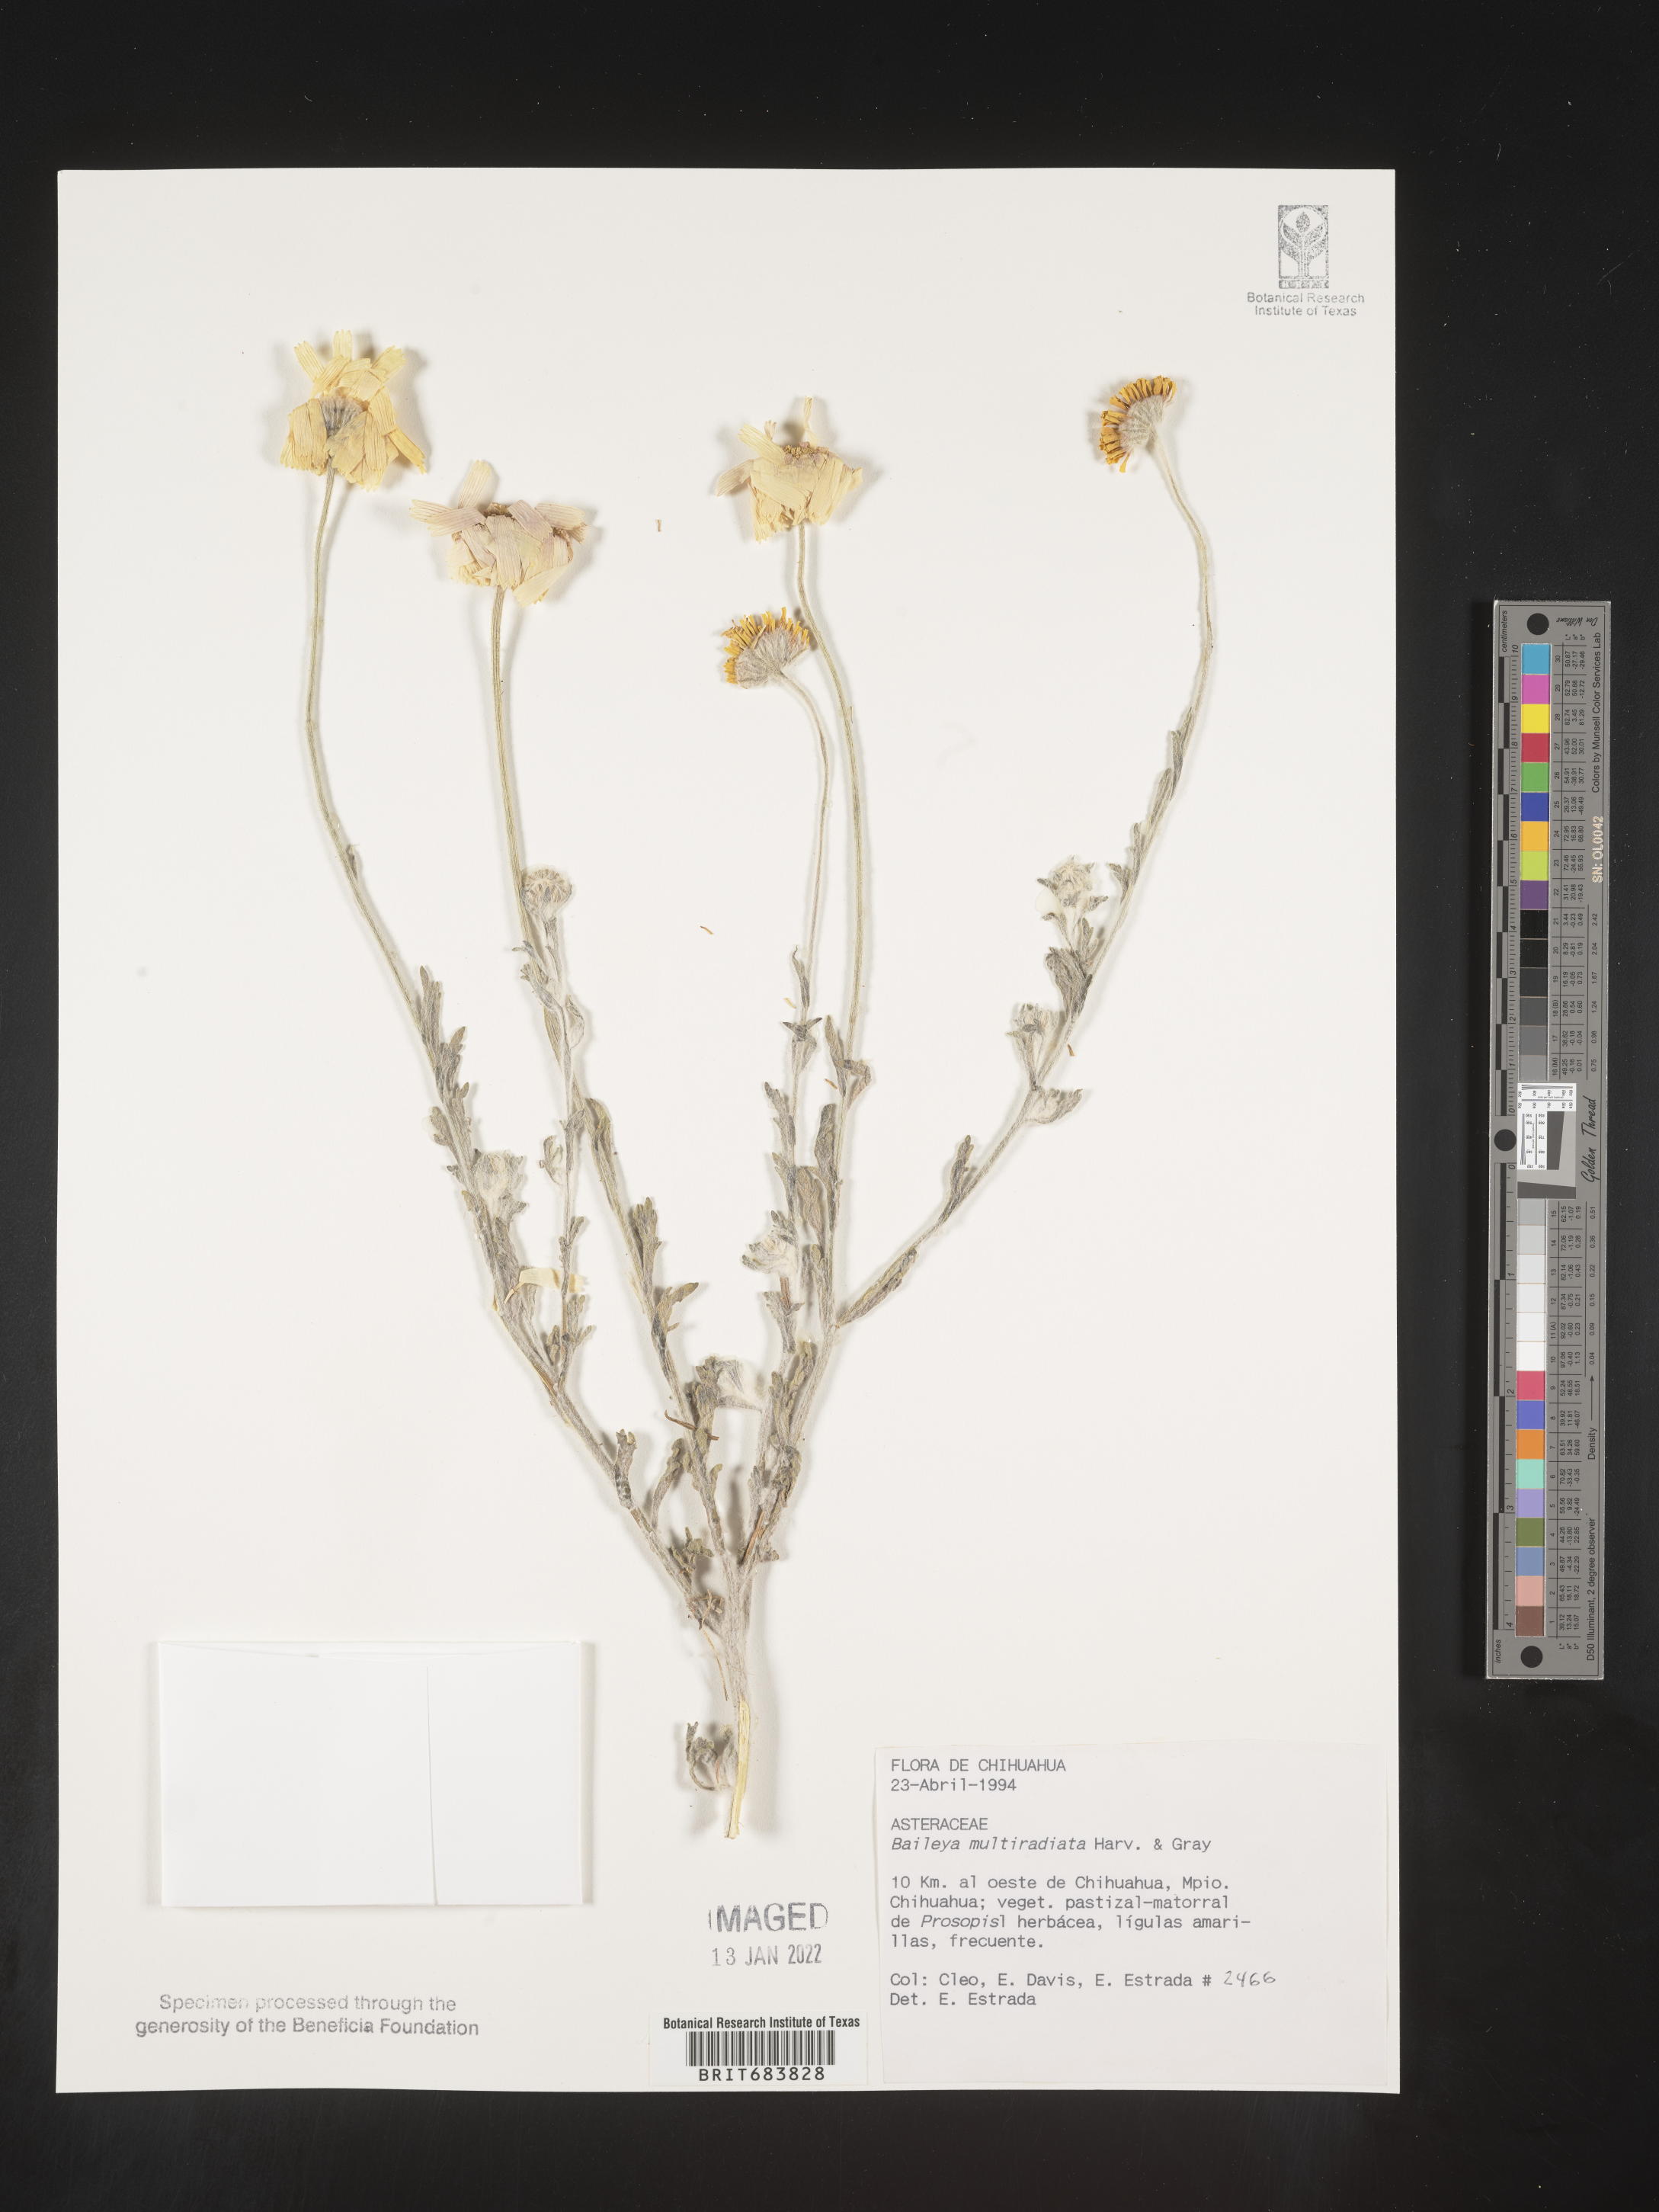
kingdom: Plantae
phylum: Tracheophyta
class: Magnoliopsida
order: Asterales
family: Asteraceae
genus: Baileya
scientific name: Baileya
